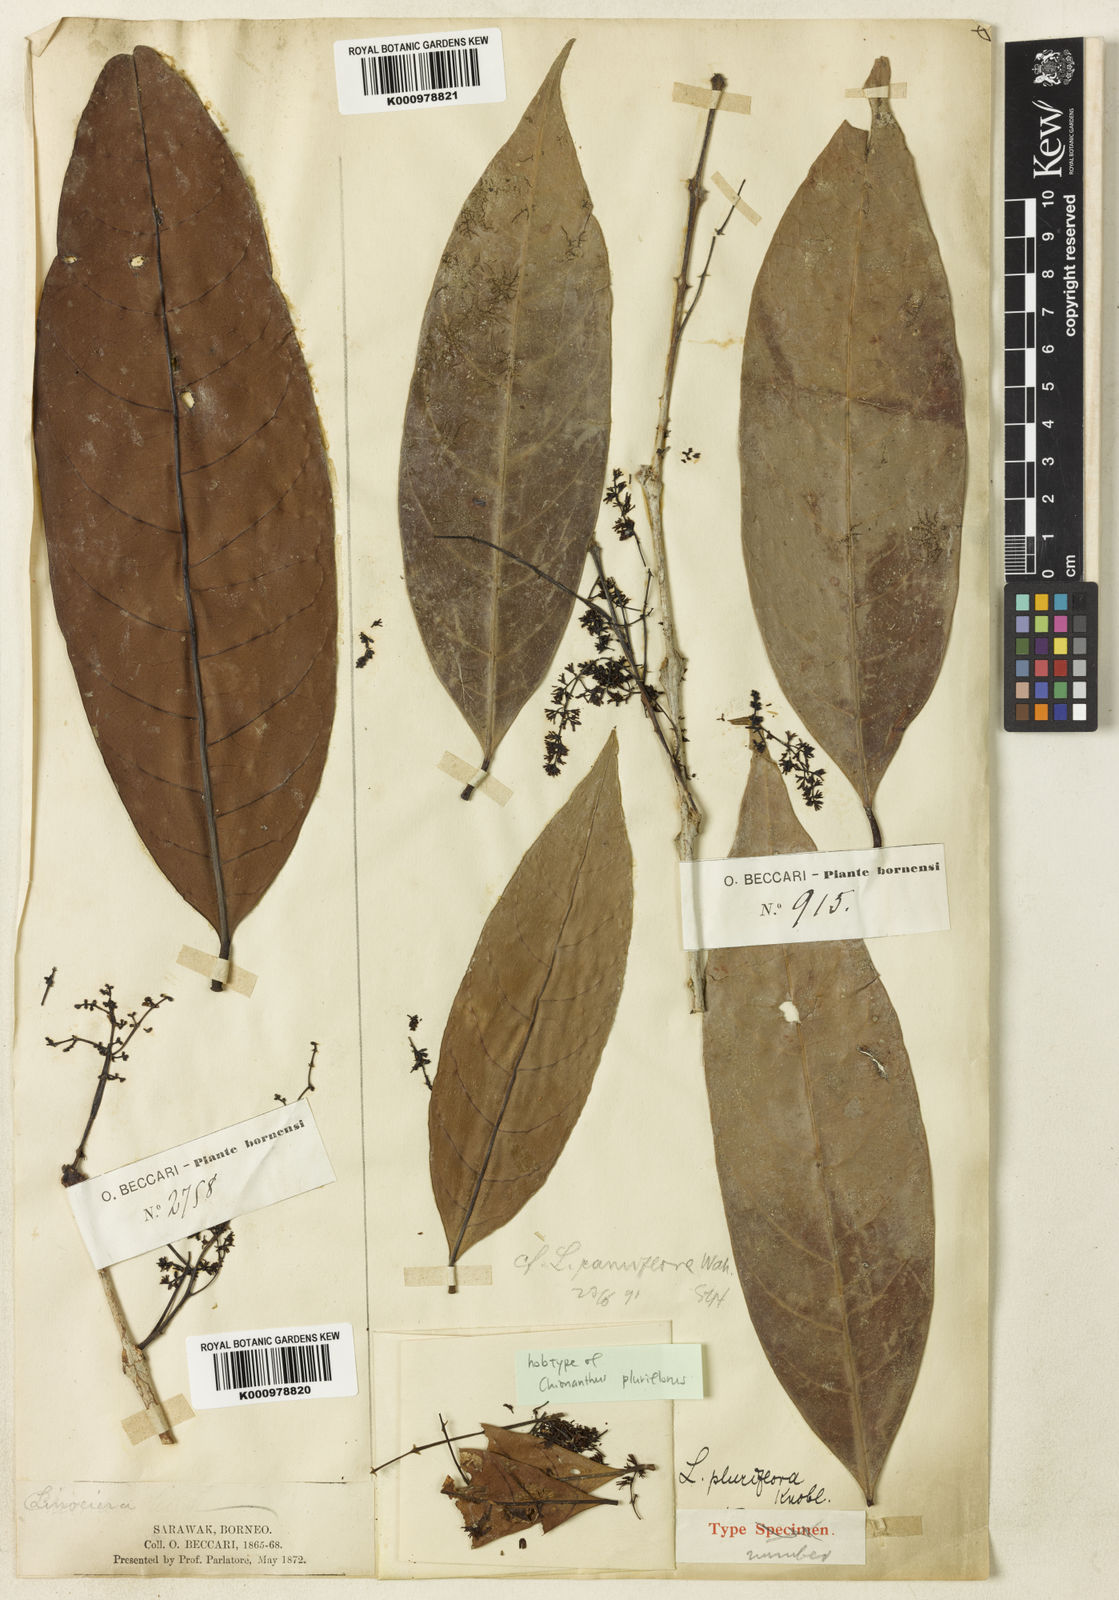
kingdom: Plantae
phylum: Tracheophyta
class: Magnoliopsida
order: Lamiales
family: Oleaceae
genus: Chionanthus
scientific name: Chionanthus pluriflorus
